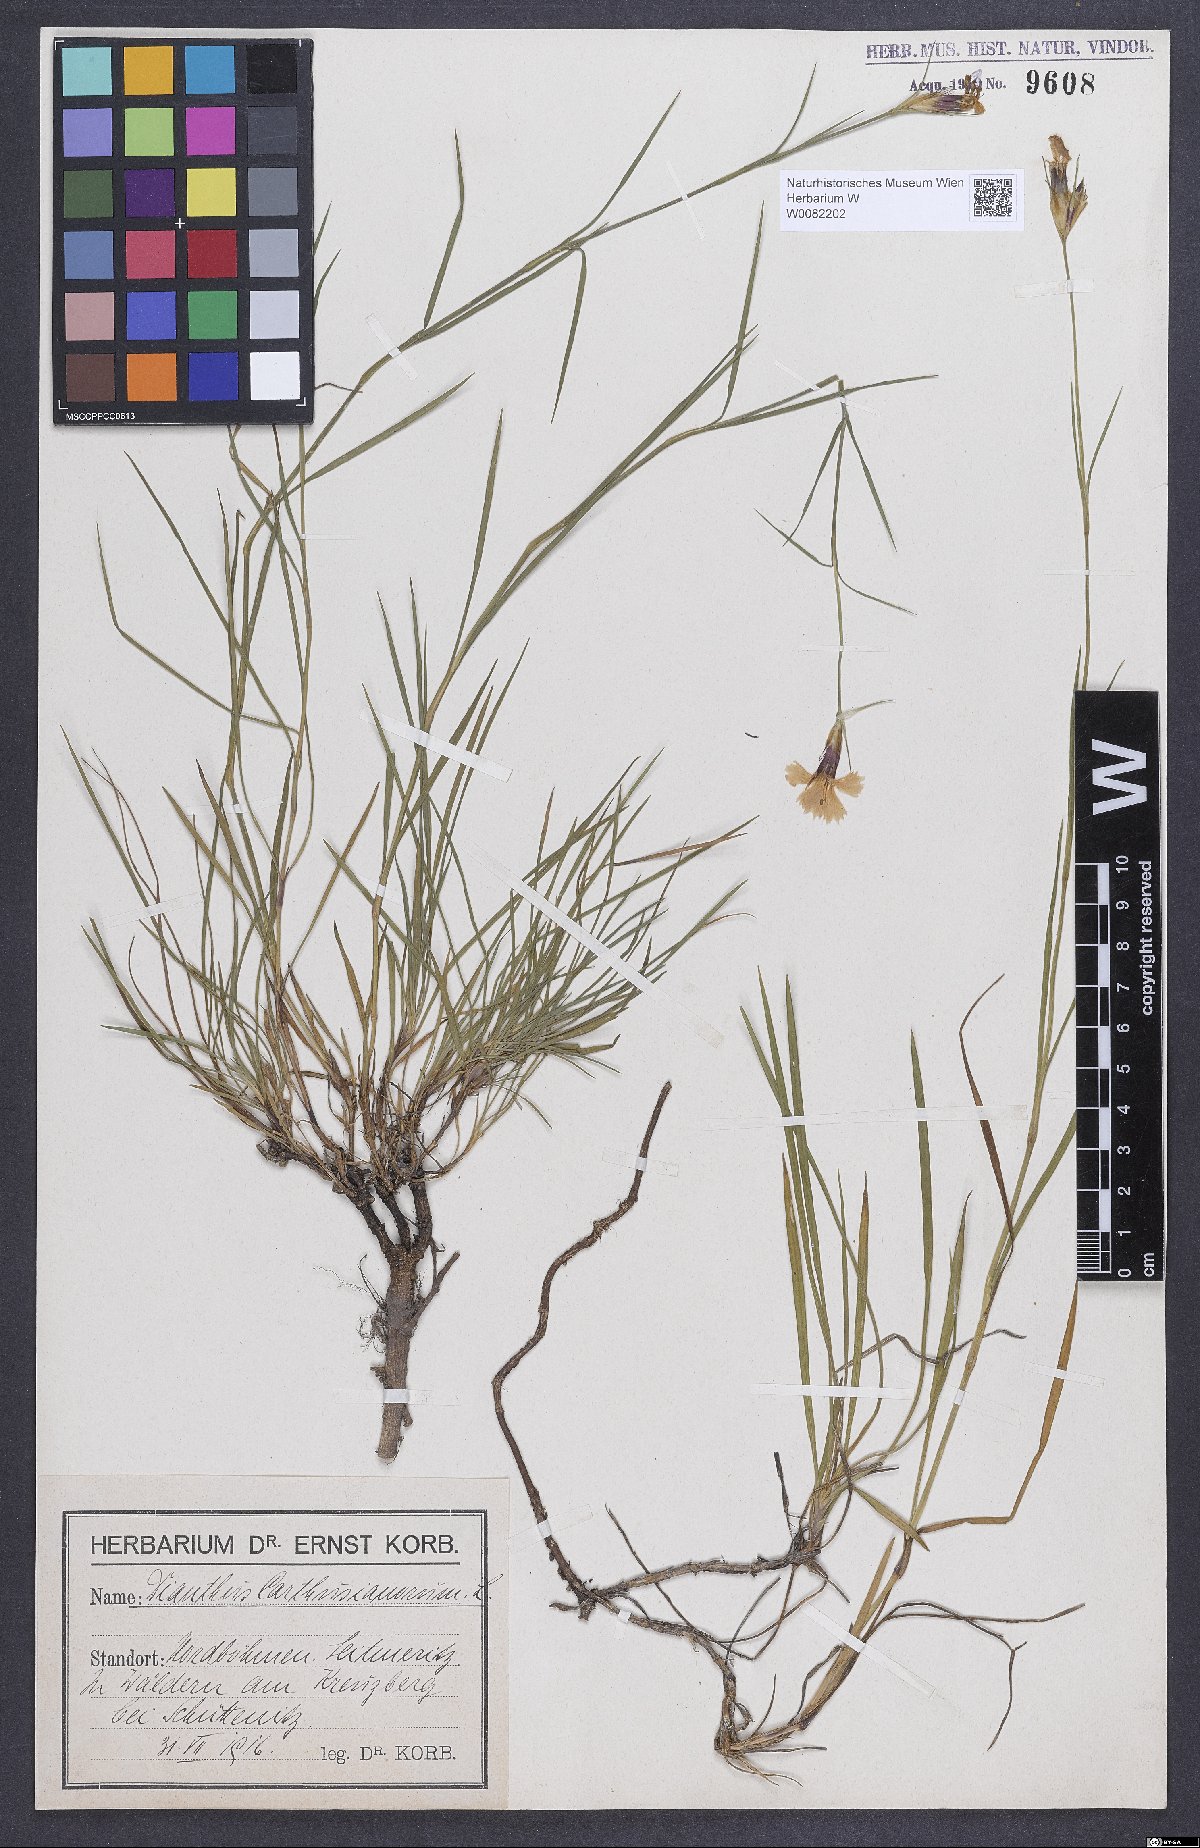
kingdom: Plantae
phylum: Tracheophyta
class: Magnoliopsida
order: Caryophyllales
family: Caryophyllaceae
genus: Dianthus
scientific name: Dianthus carthusianorum
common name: Carthusian pink
